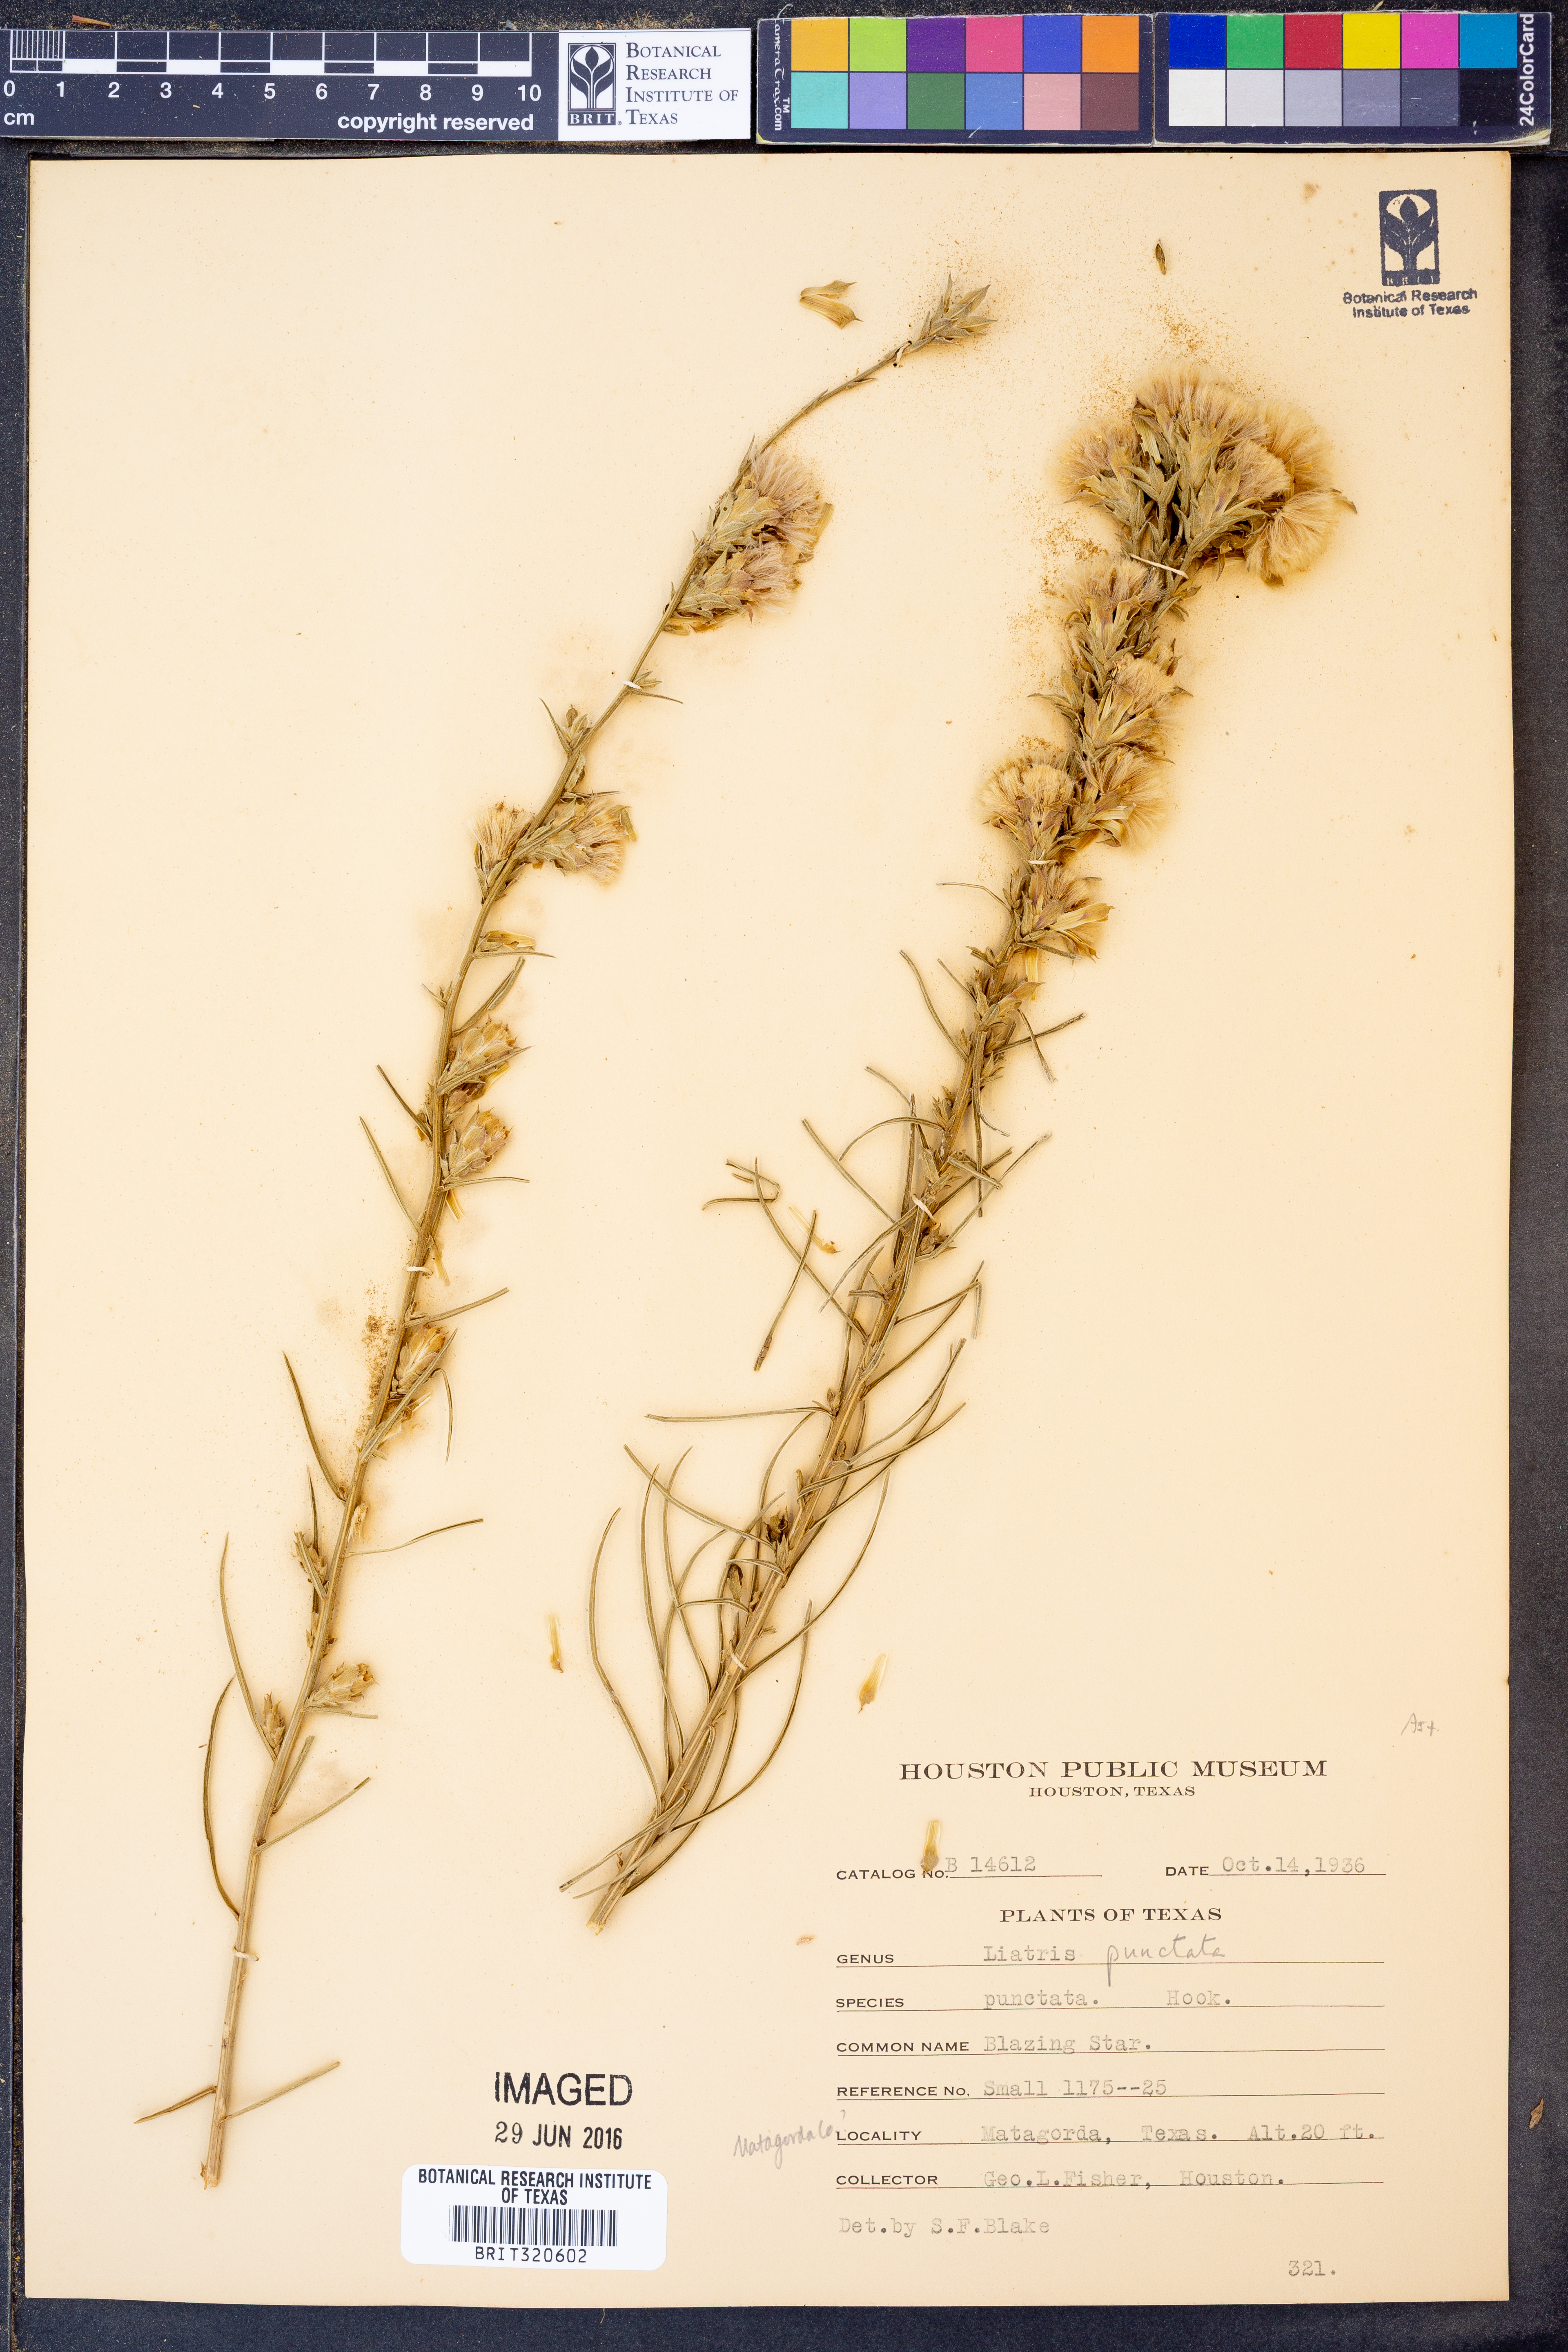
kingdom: Plantae
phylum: Tracheophyta
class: Magnoliopsida
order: Asterales
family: Asteraceae
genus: Liatris
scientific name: Liatris punctata
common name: Dotted gayfeather
